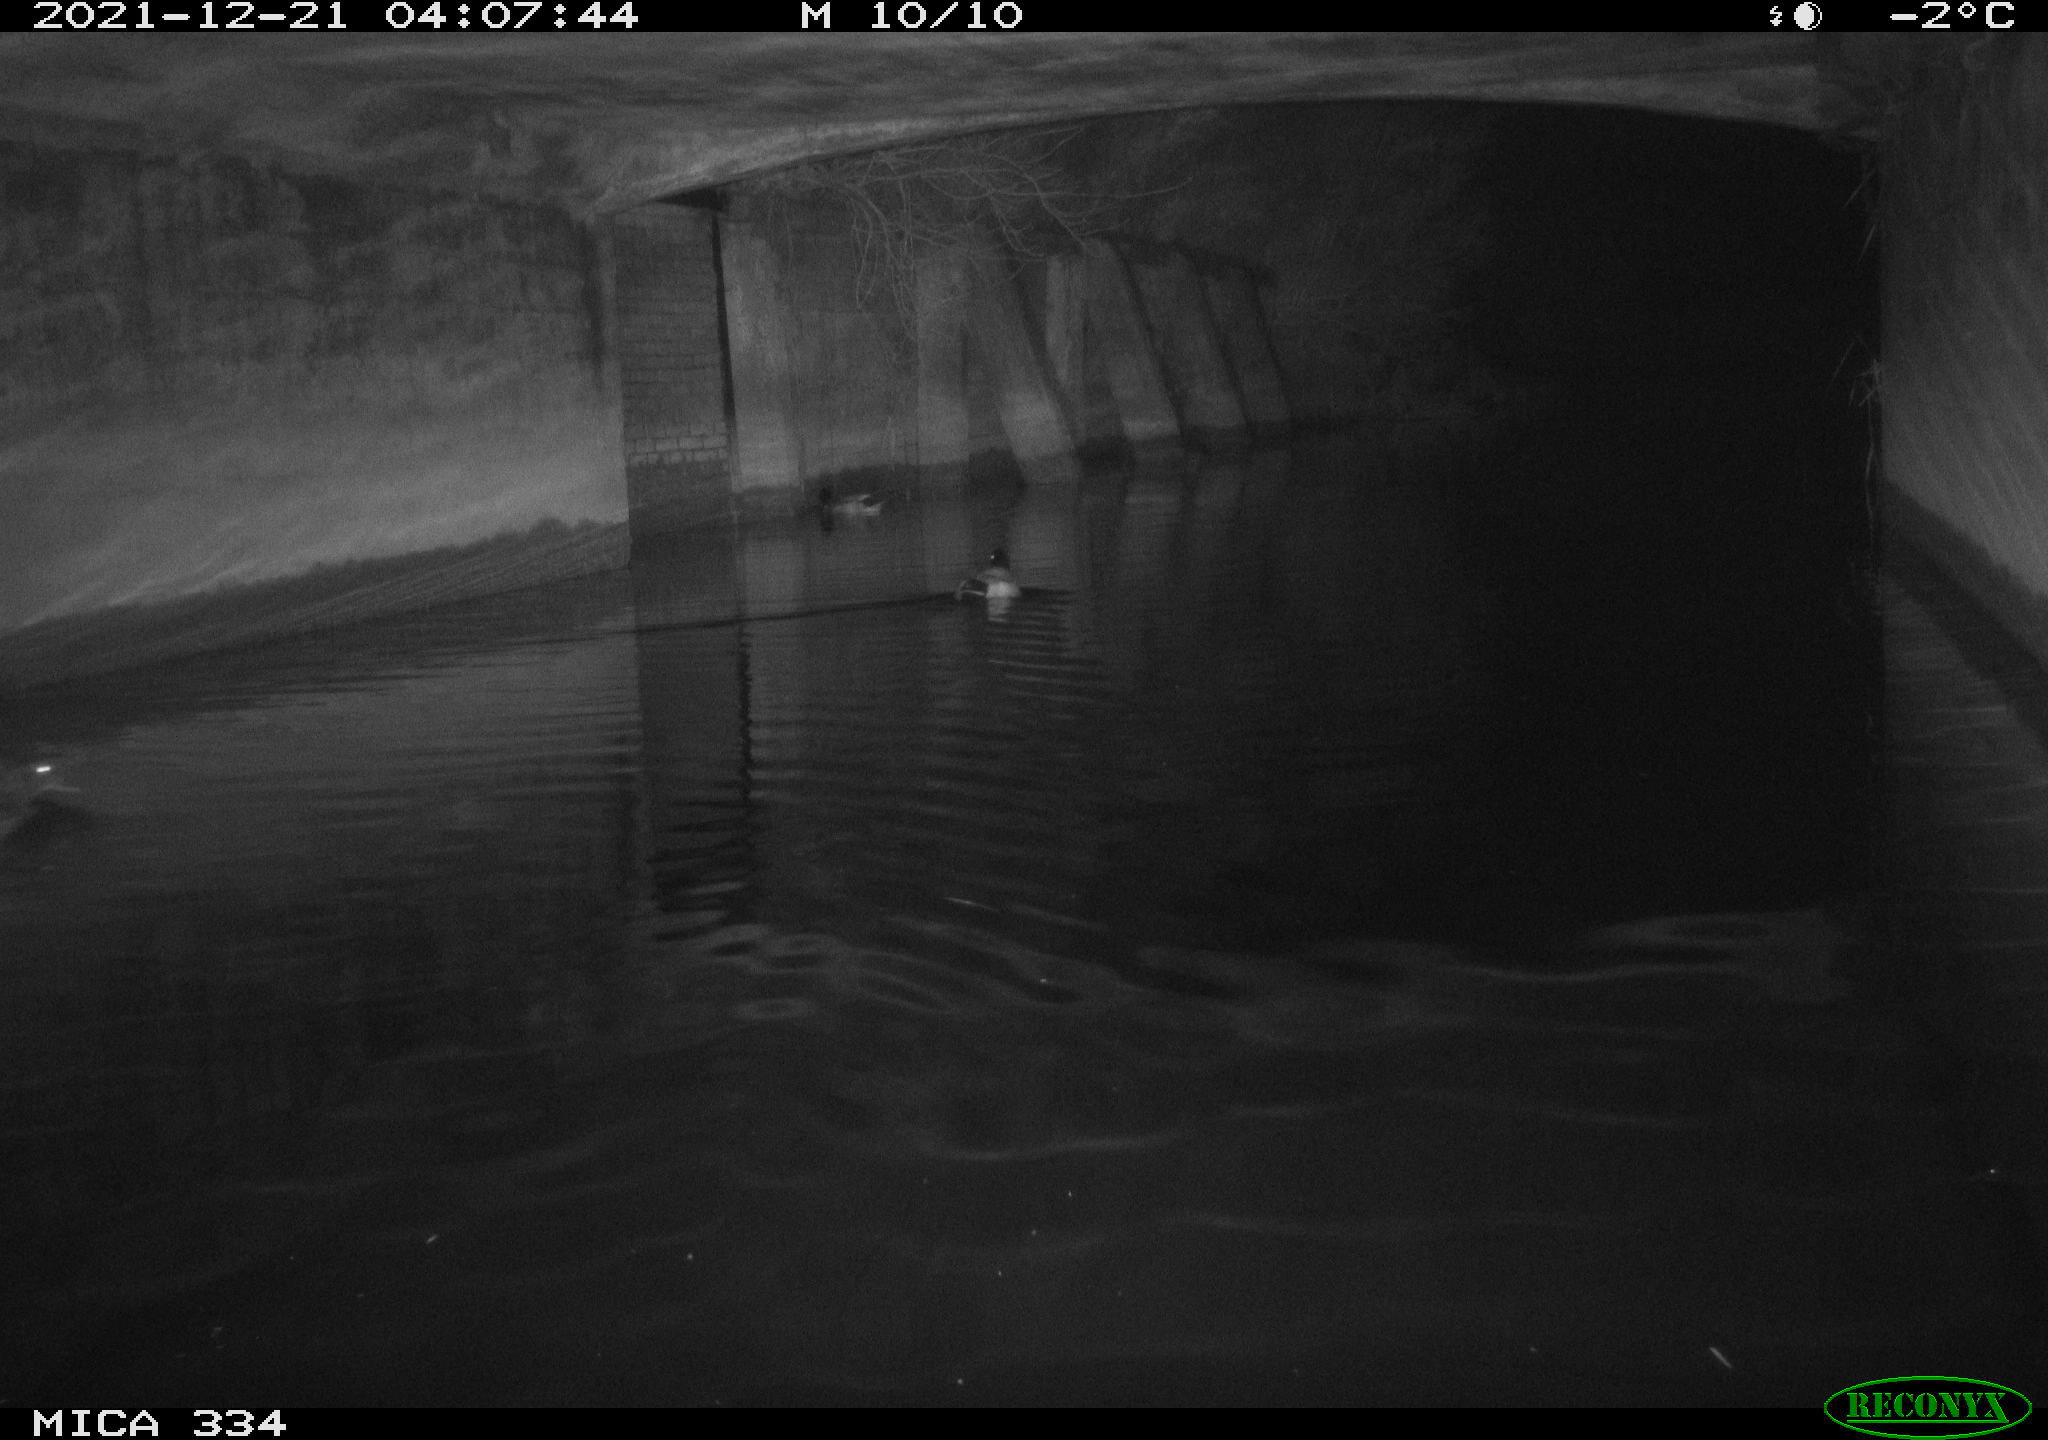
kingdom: Animalia
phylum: Chordata
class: Aves
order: Anseriformes
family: Anatidae
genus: Anas
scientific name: Anas platyrhynchos
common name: Mallard
